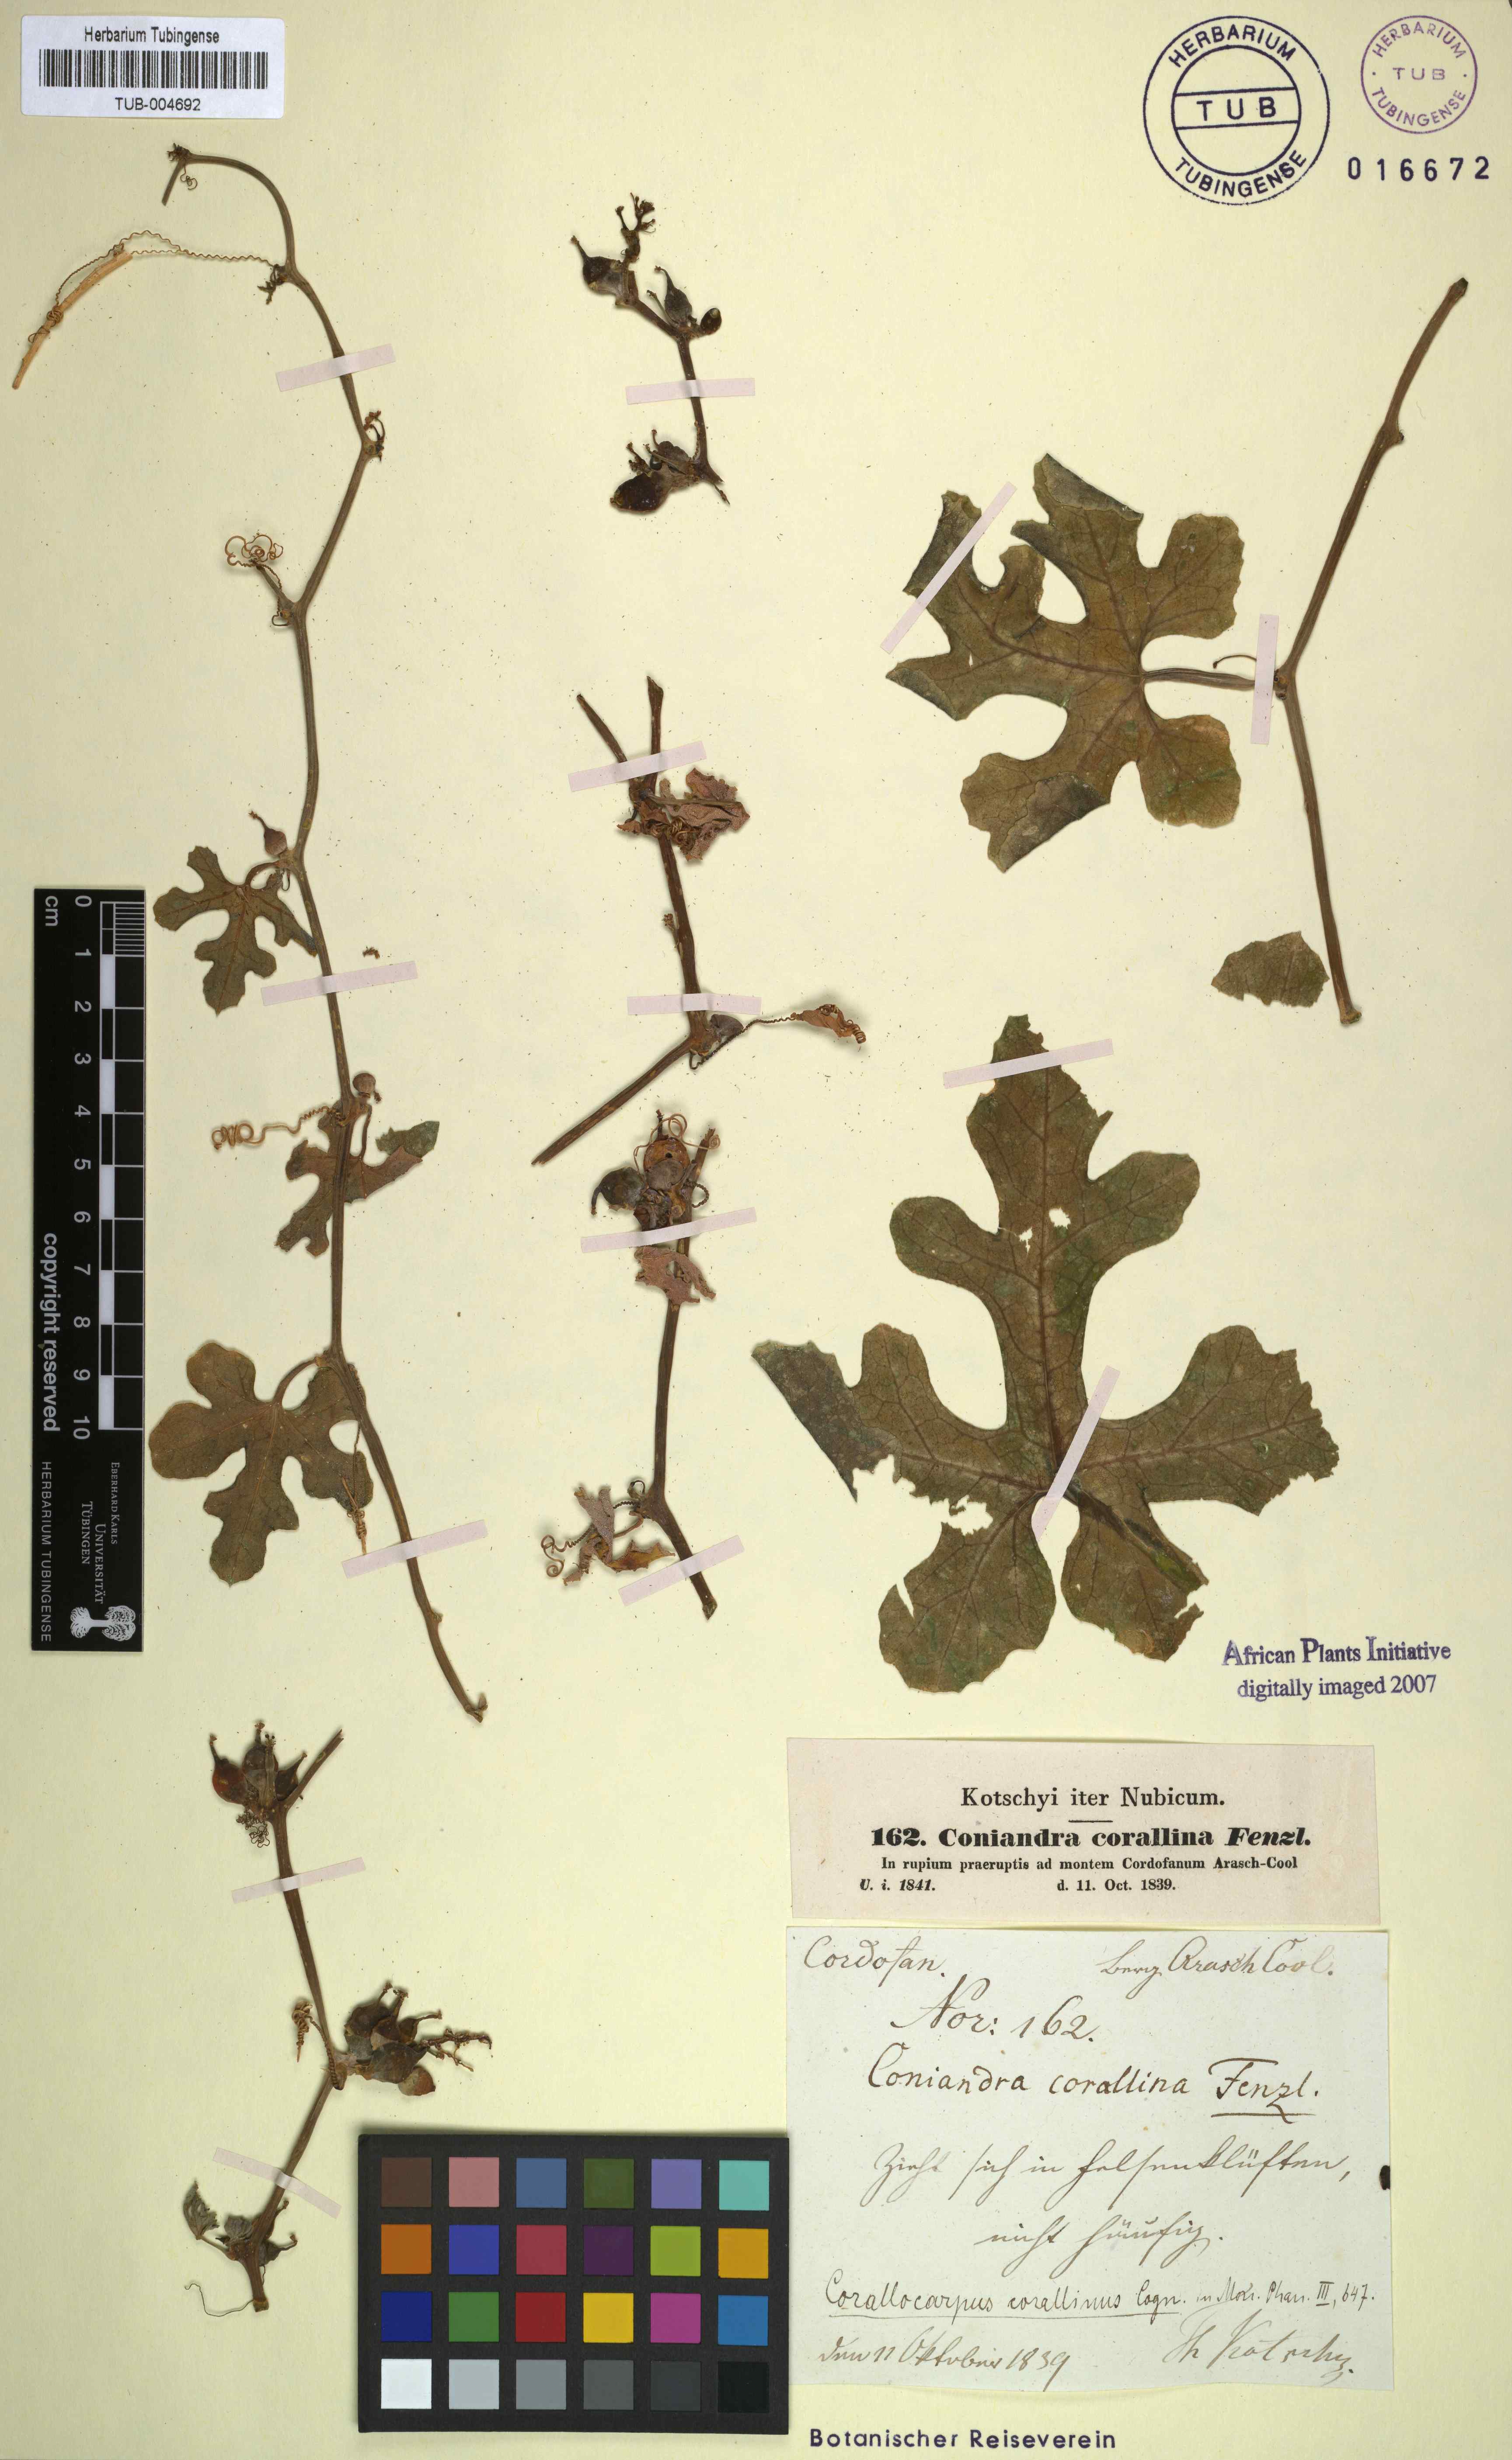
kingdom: Plantae
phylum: Tracheophyta
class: Magnoliopsida
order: Cucurbitales
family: Cucurbitaceae
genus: Corallocarpus
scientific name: Corallocarpus epigaeus
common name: Indian bryonia
